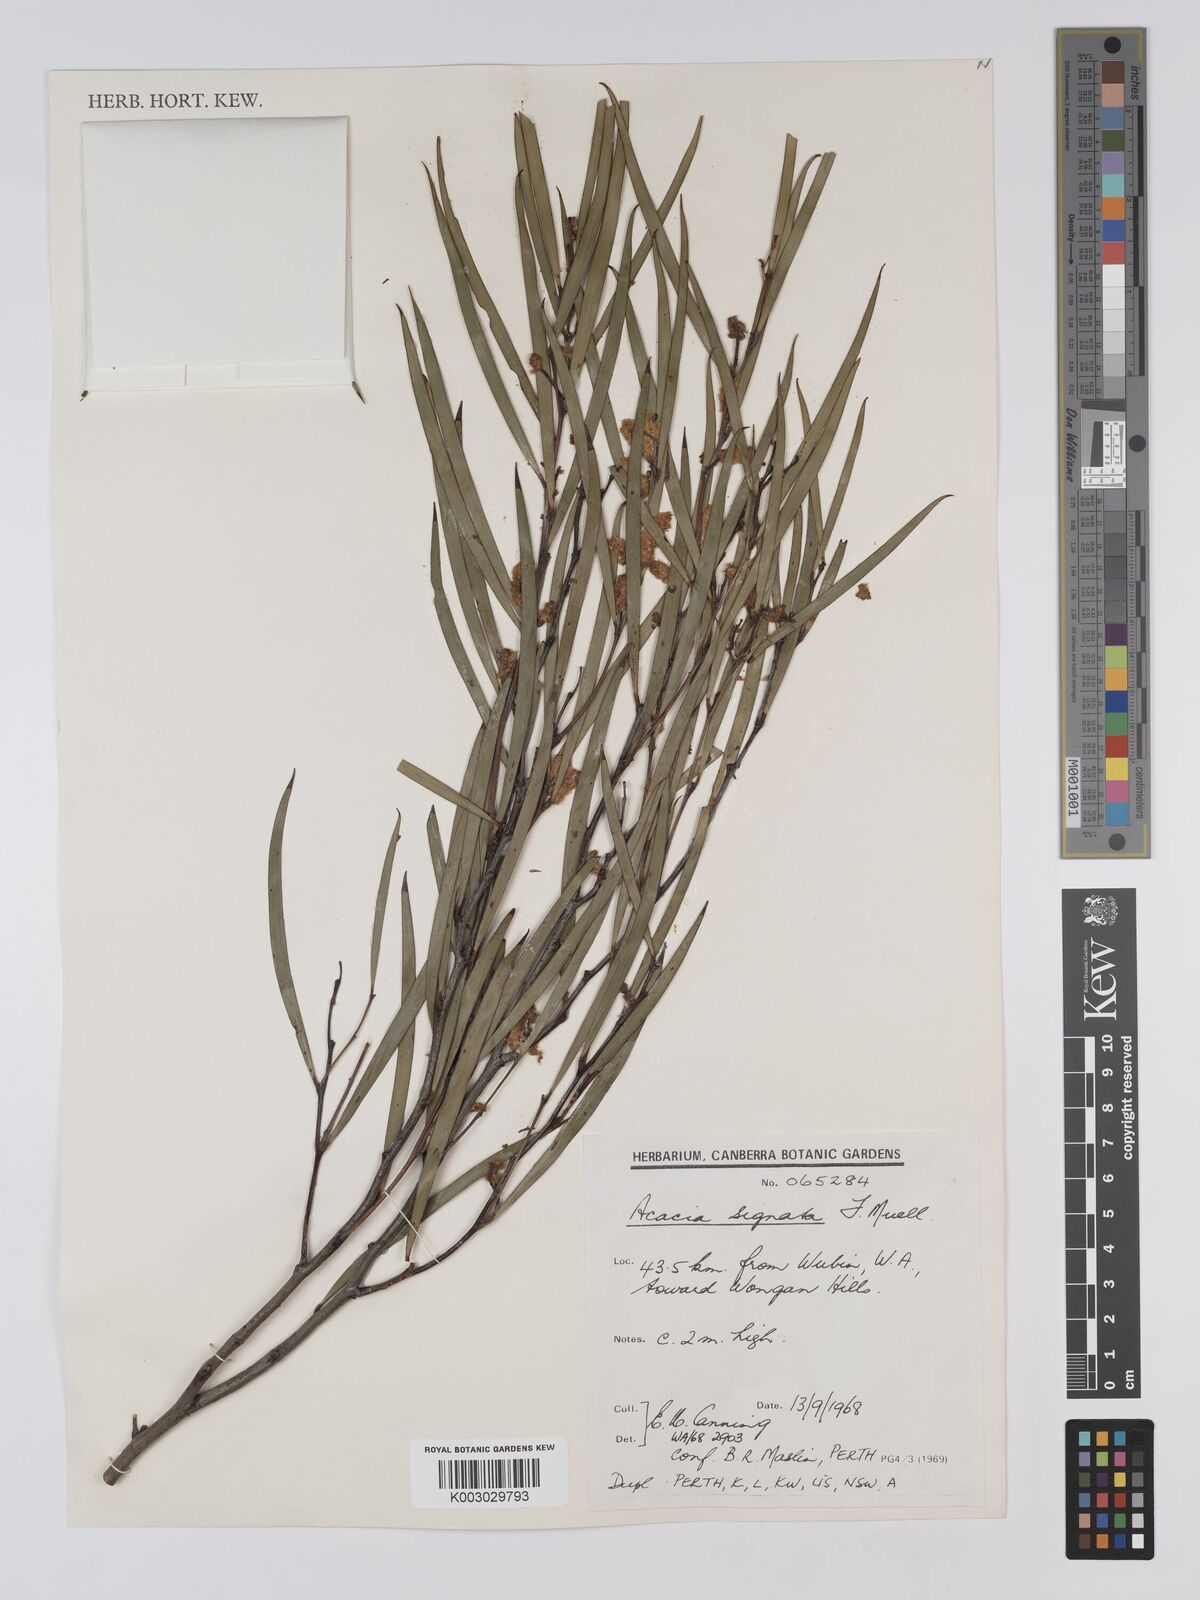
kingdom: Plantae
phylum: Tracheophyta
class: Magnoliopsida
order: Fabales
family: Fabaceae
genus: Acacia
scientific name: Acacia signata
